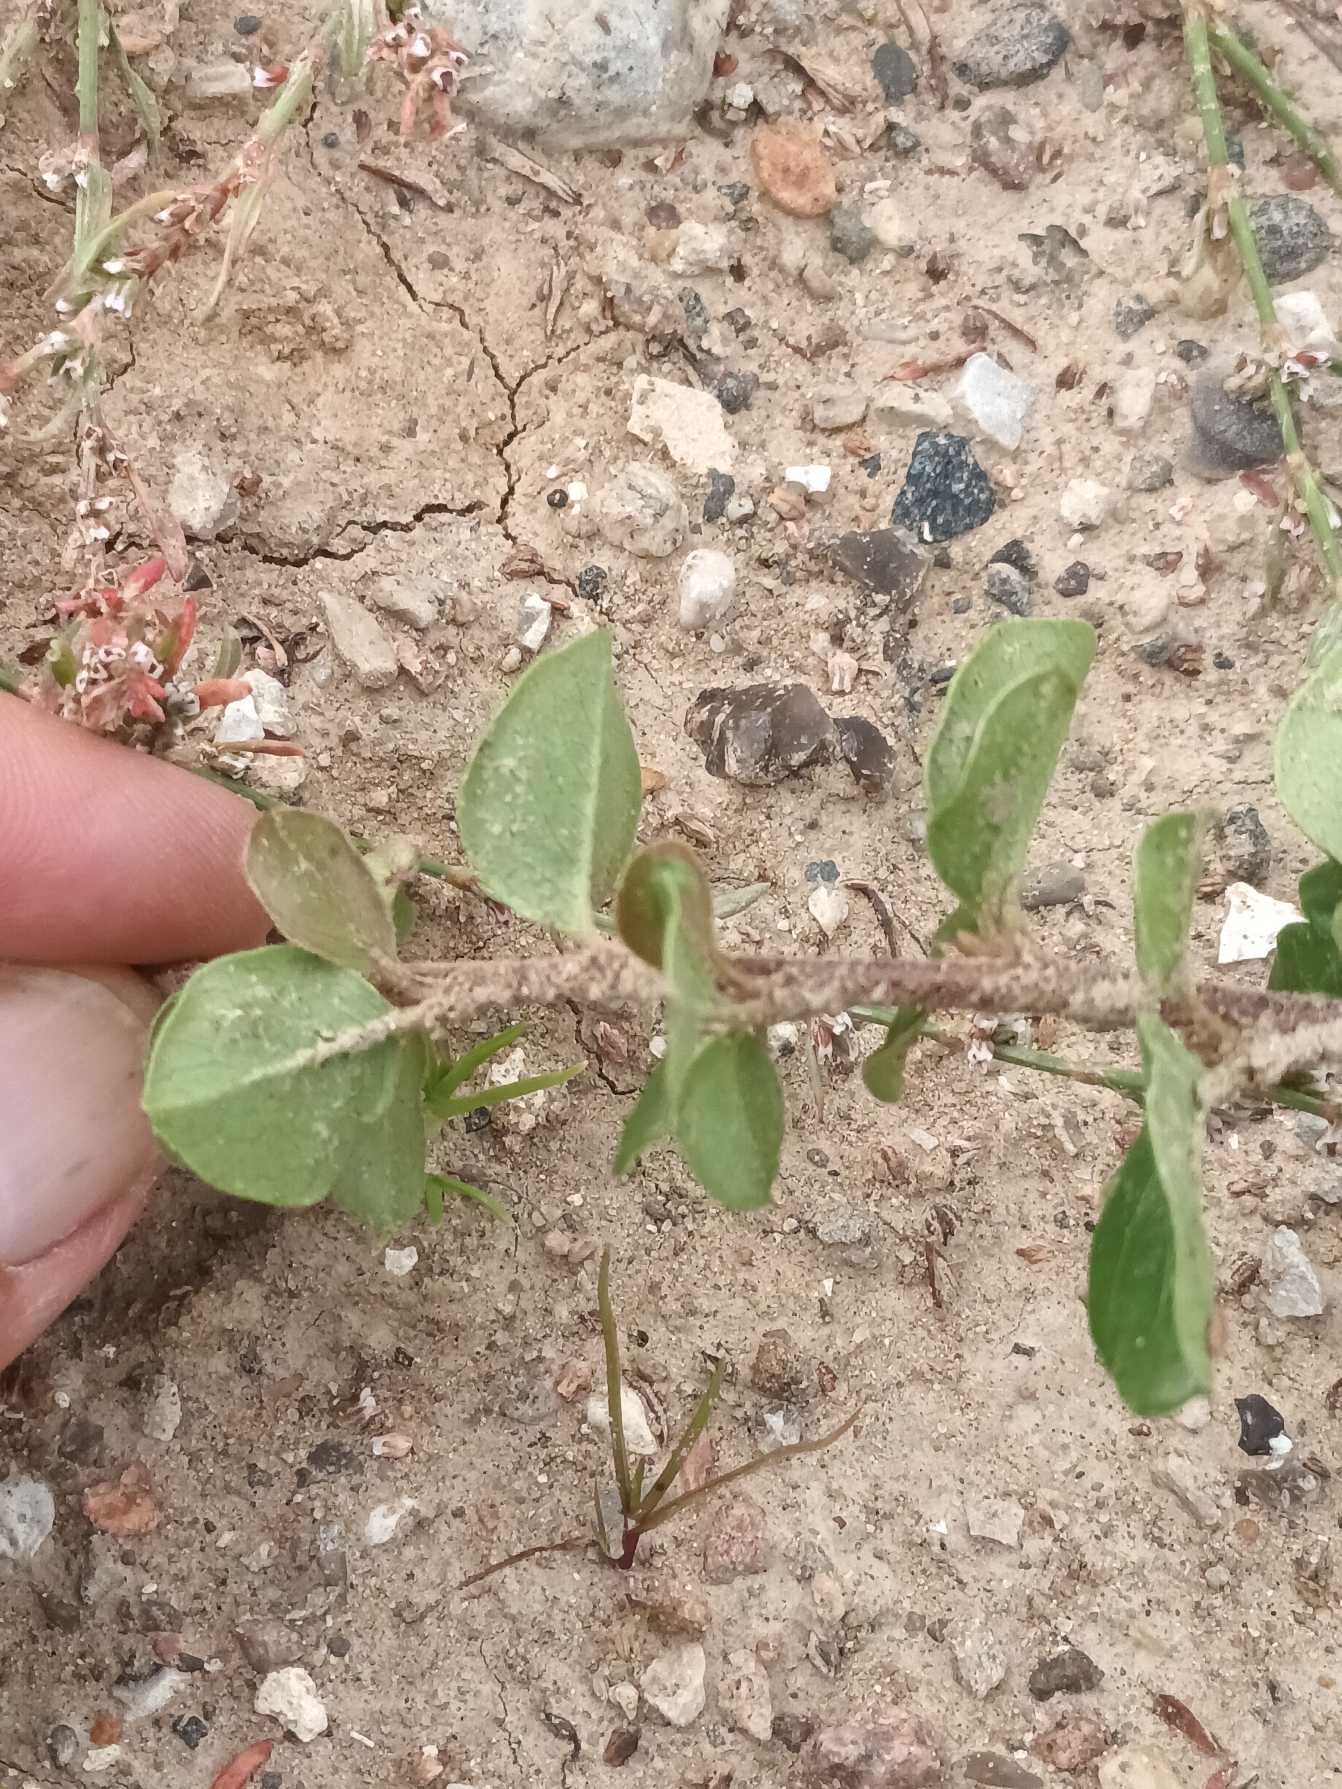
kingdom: Plantae
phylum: Tracheophyta
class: Magnoliopsida
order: Rosales
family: Rosaceae
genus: Cotoneaster
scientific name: Cotoneaster divaricatus
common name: Vifte-dværgmispel
